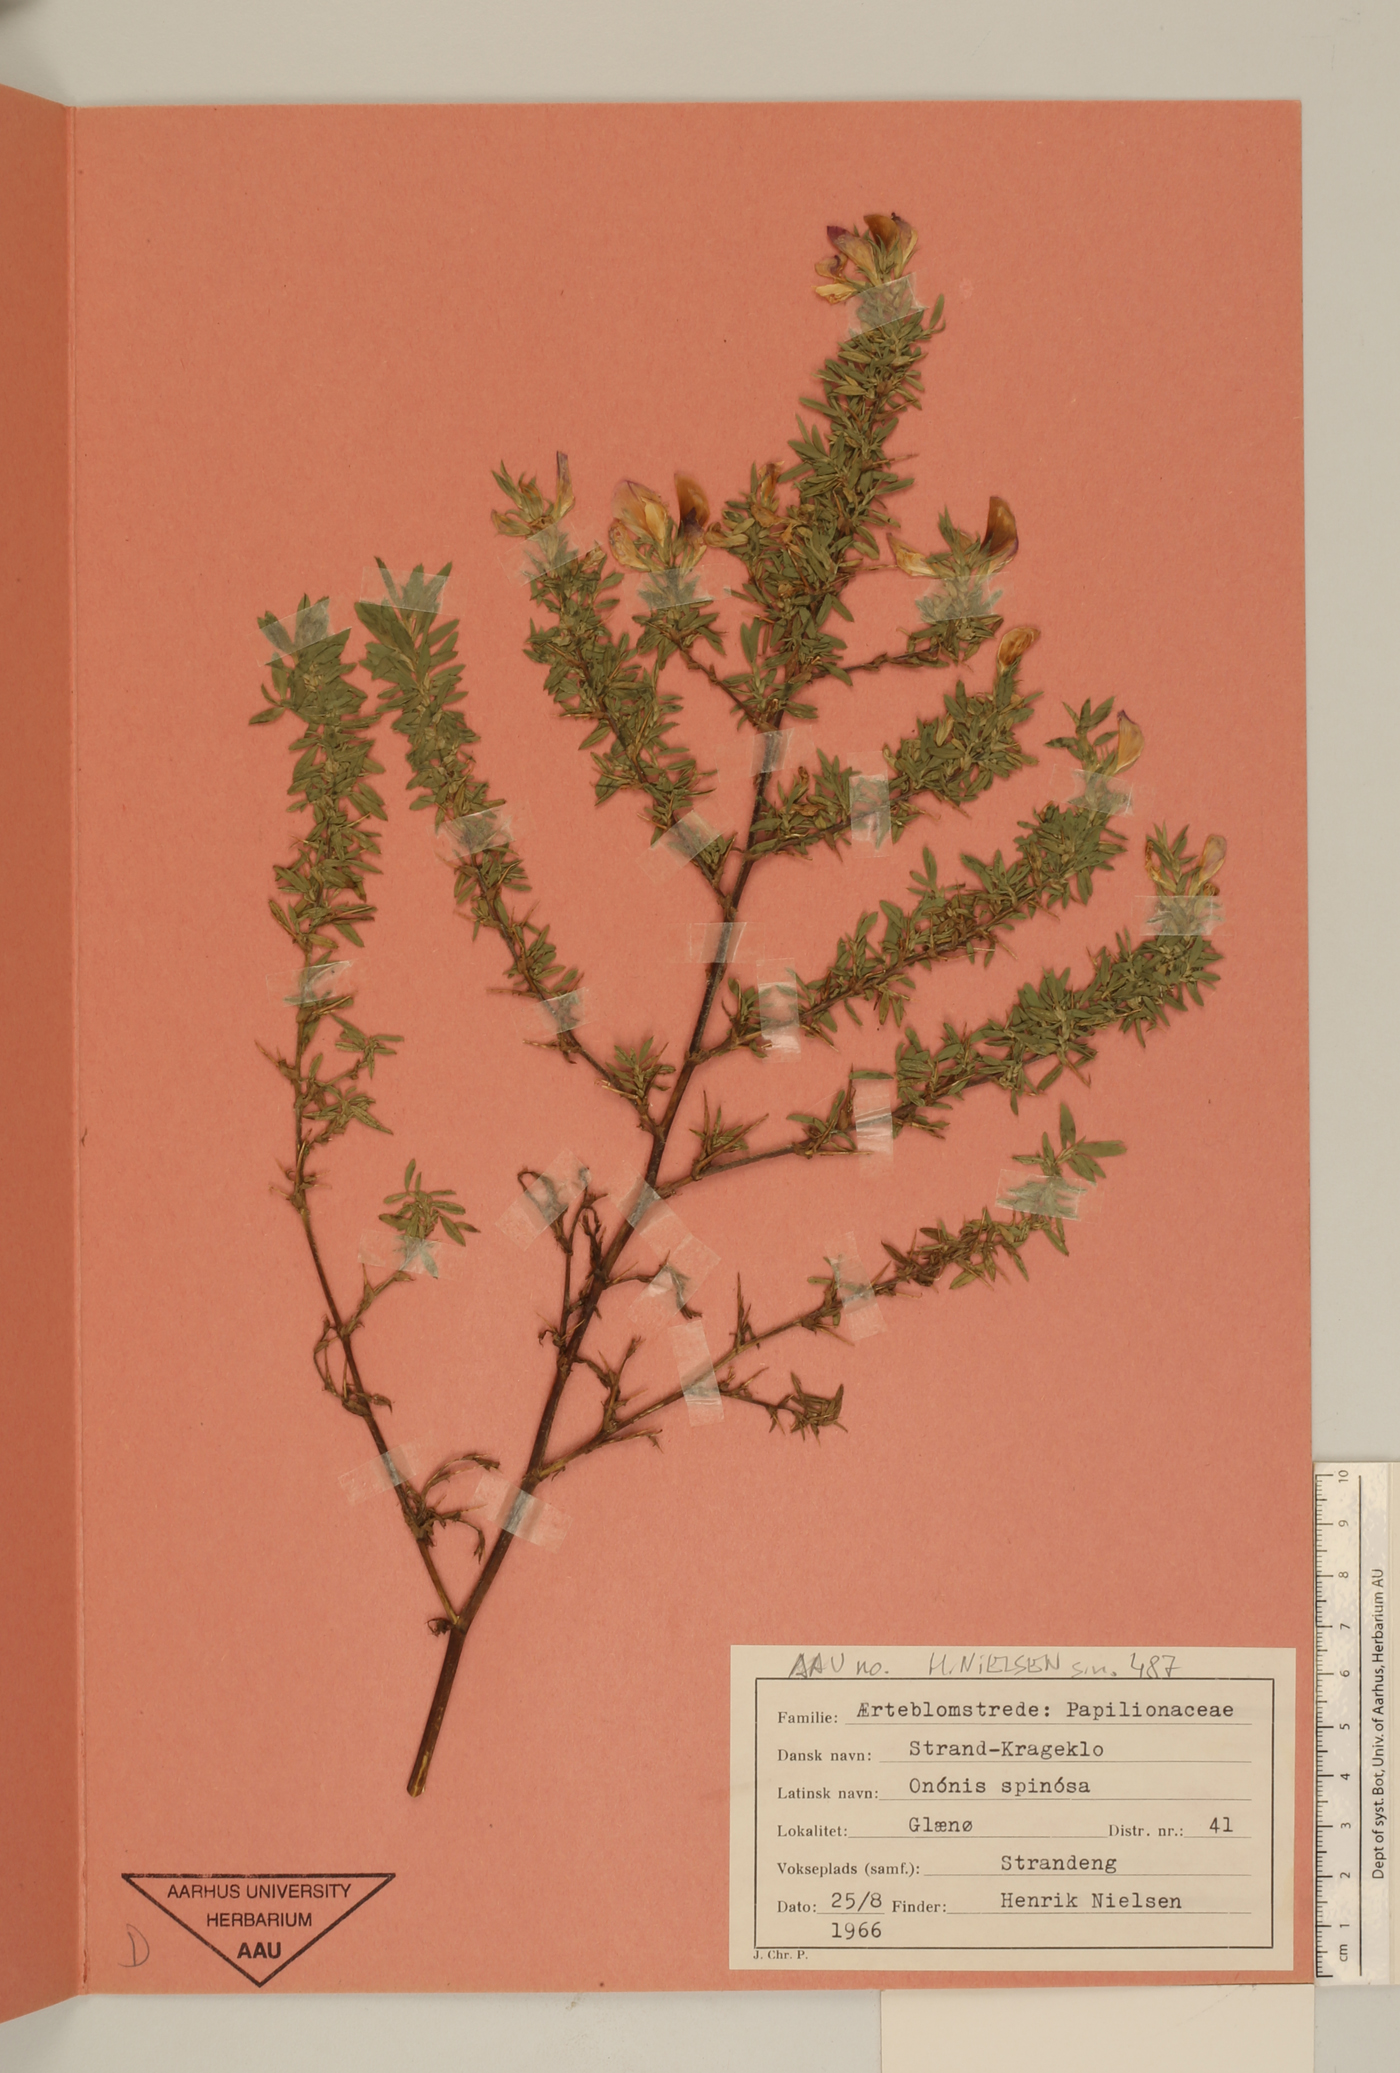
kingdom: Plantae
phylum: Tracheophyta
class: Magnoliopsida
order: Fabales
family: Fabaceae
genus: Ononis
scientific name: Ononis spinosa
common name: Spiny restharrow
